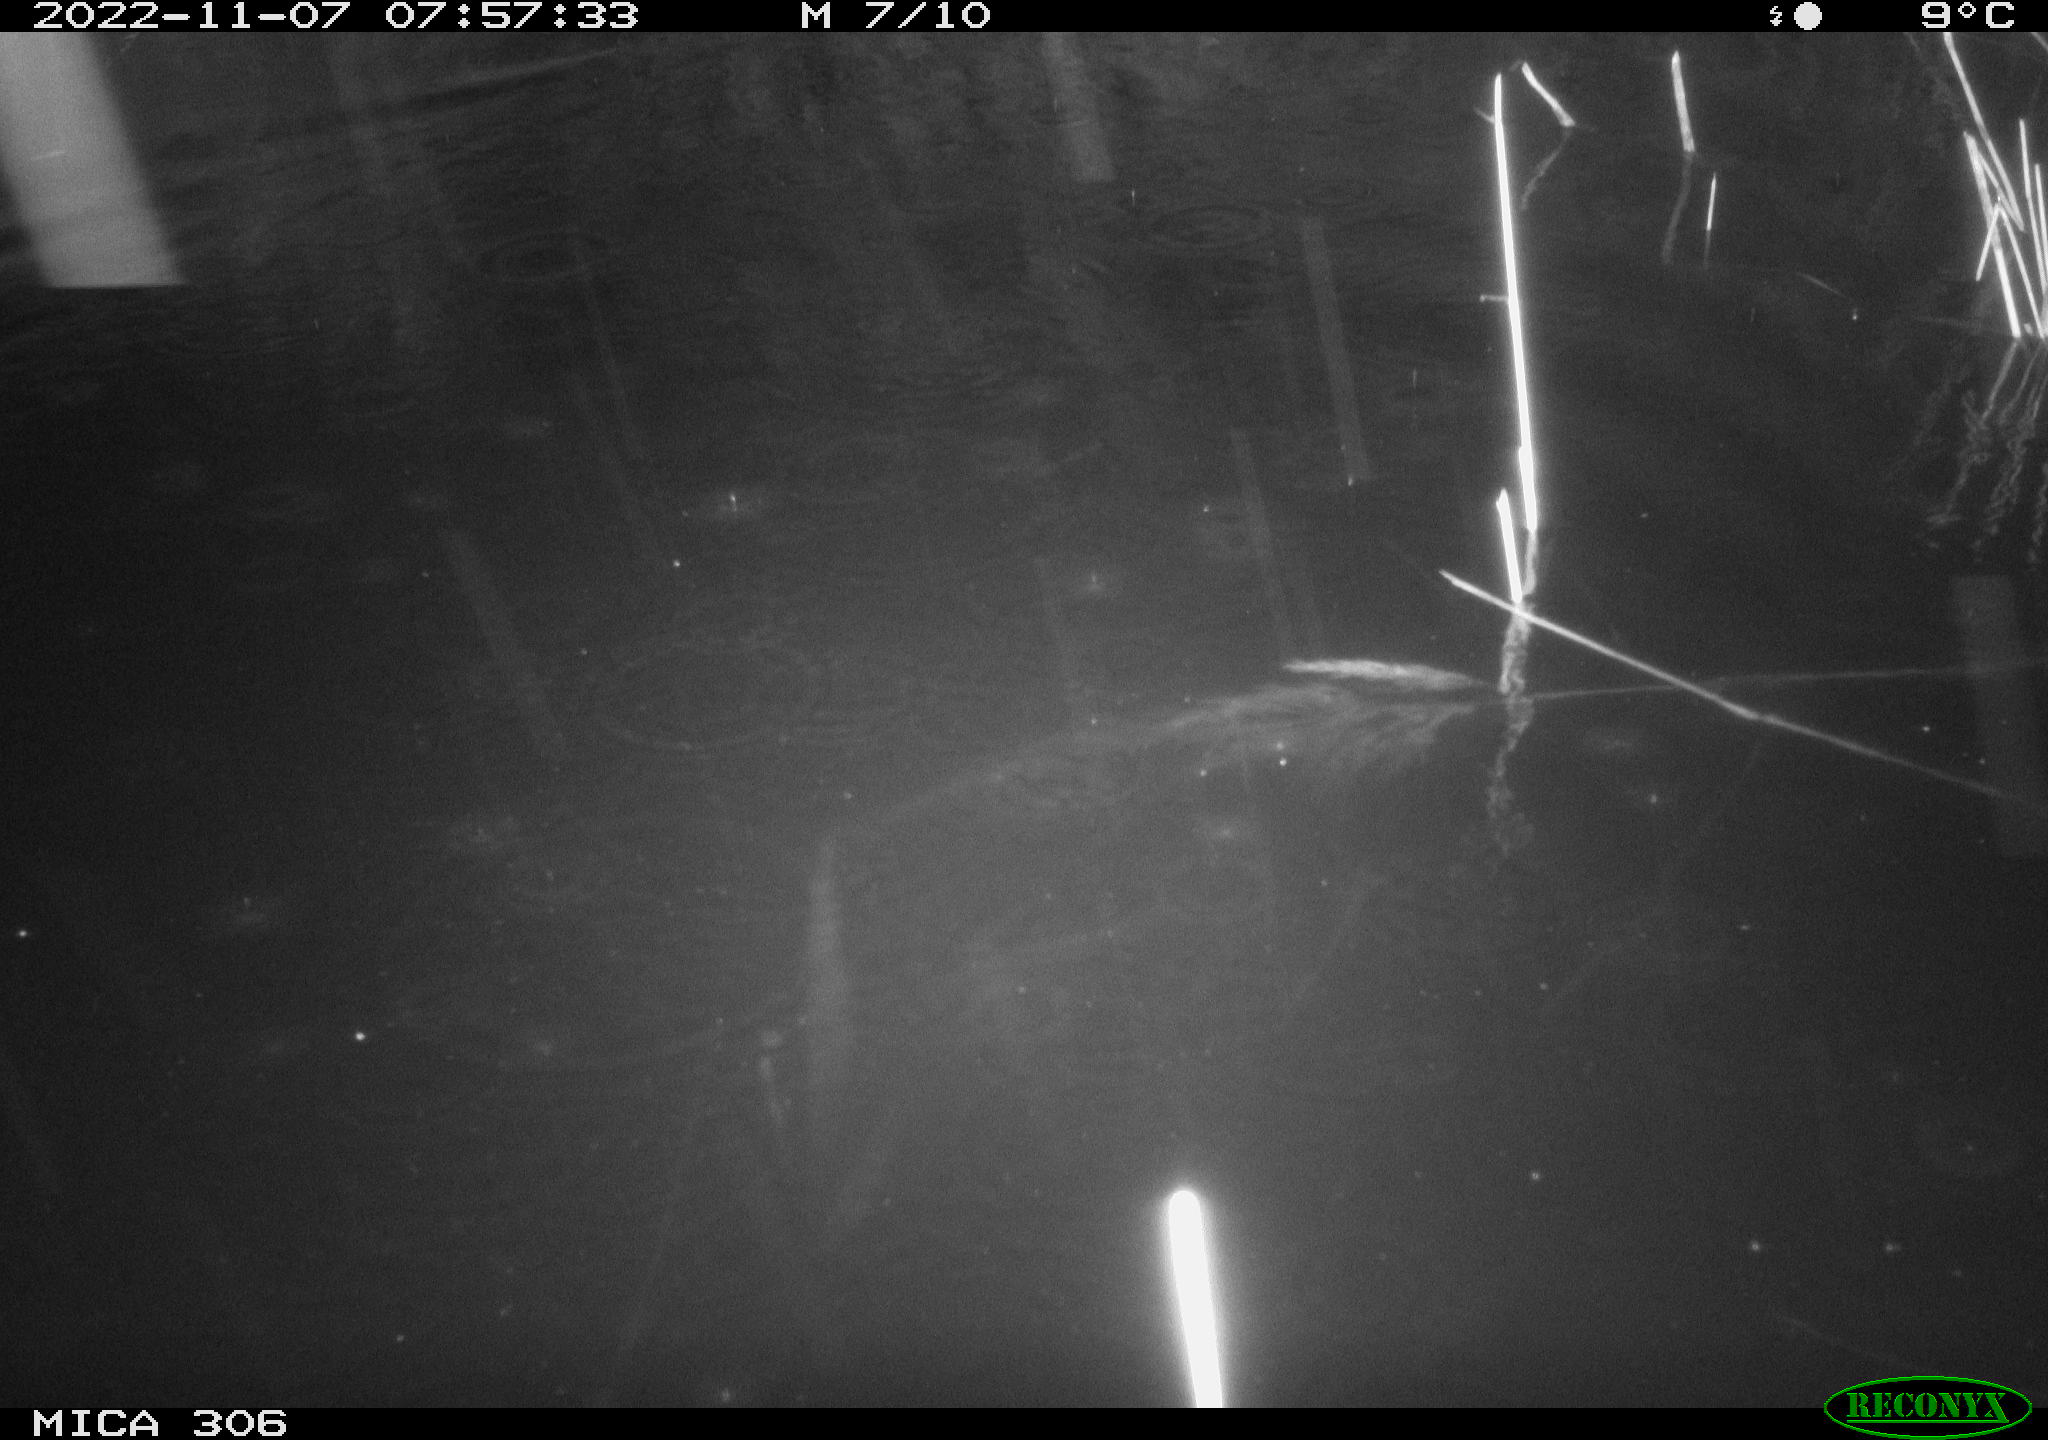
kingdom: Animalia
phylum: Chordata
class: Mammalia
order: Rodentia
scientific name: Rodentia
